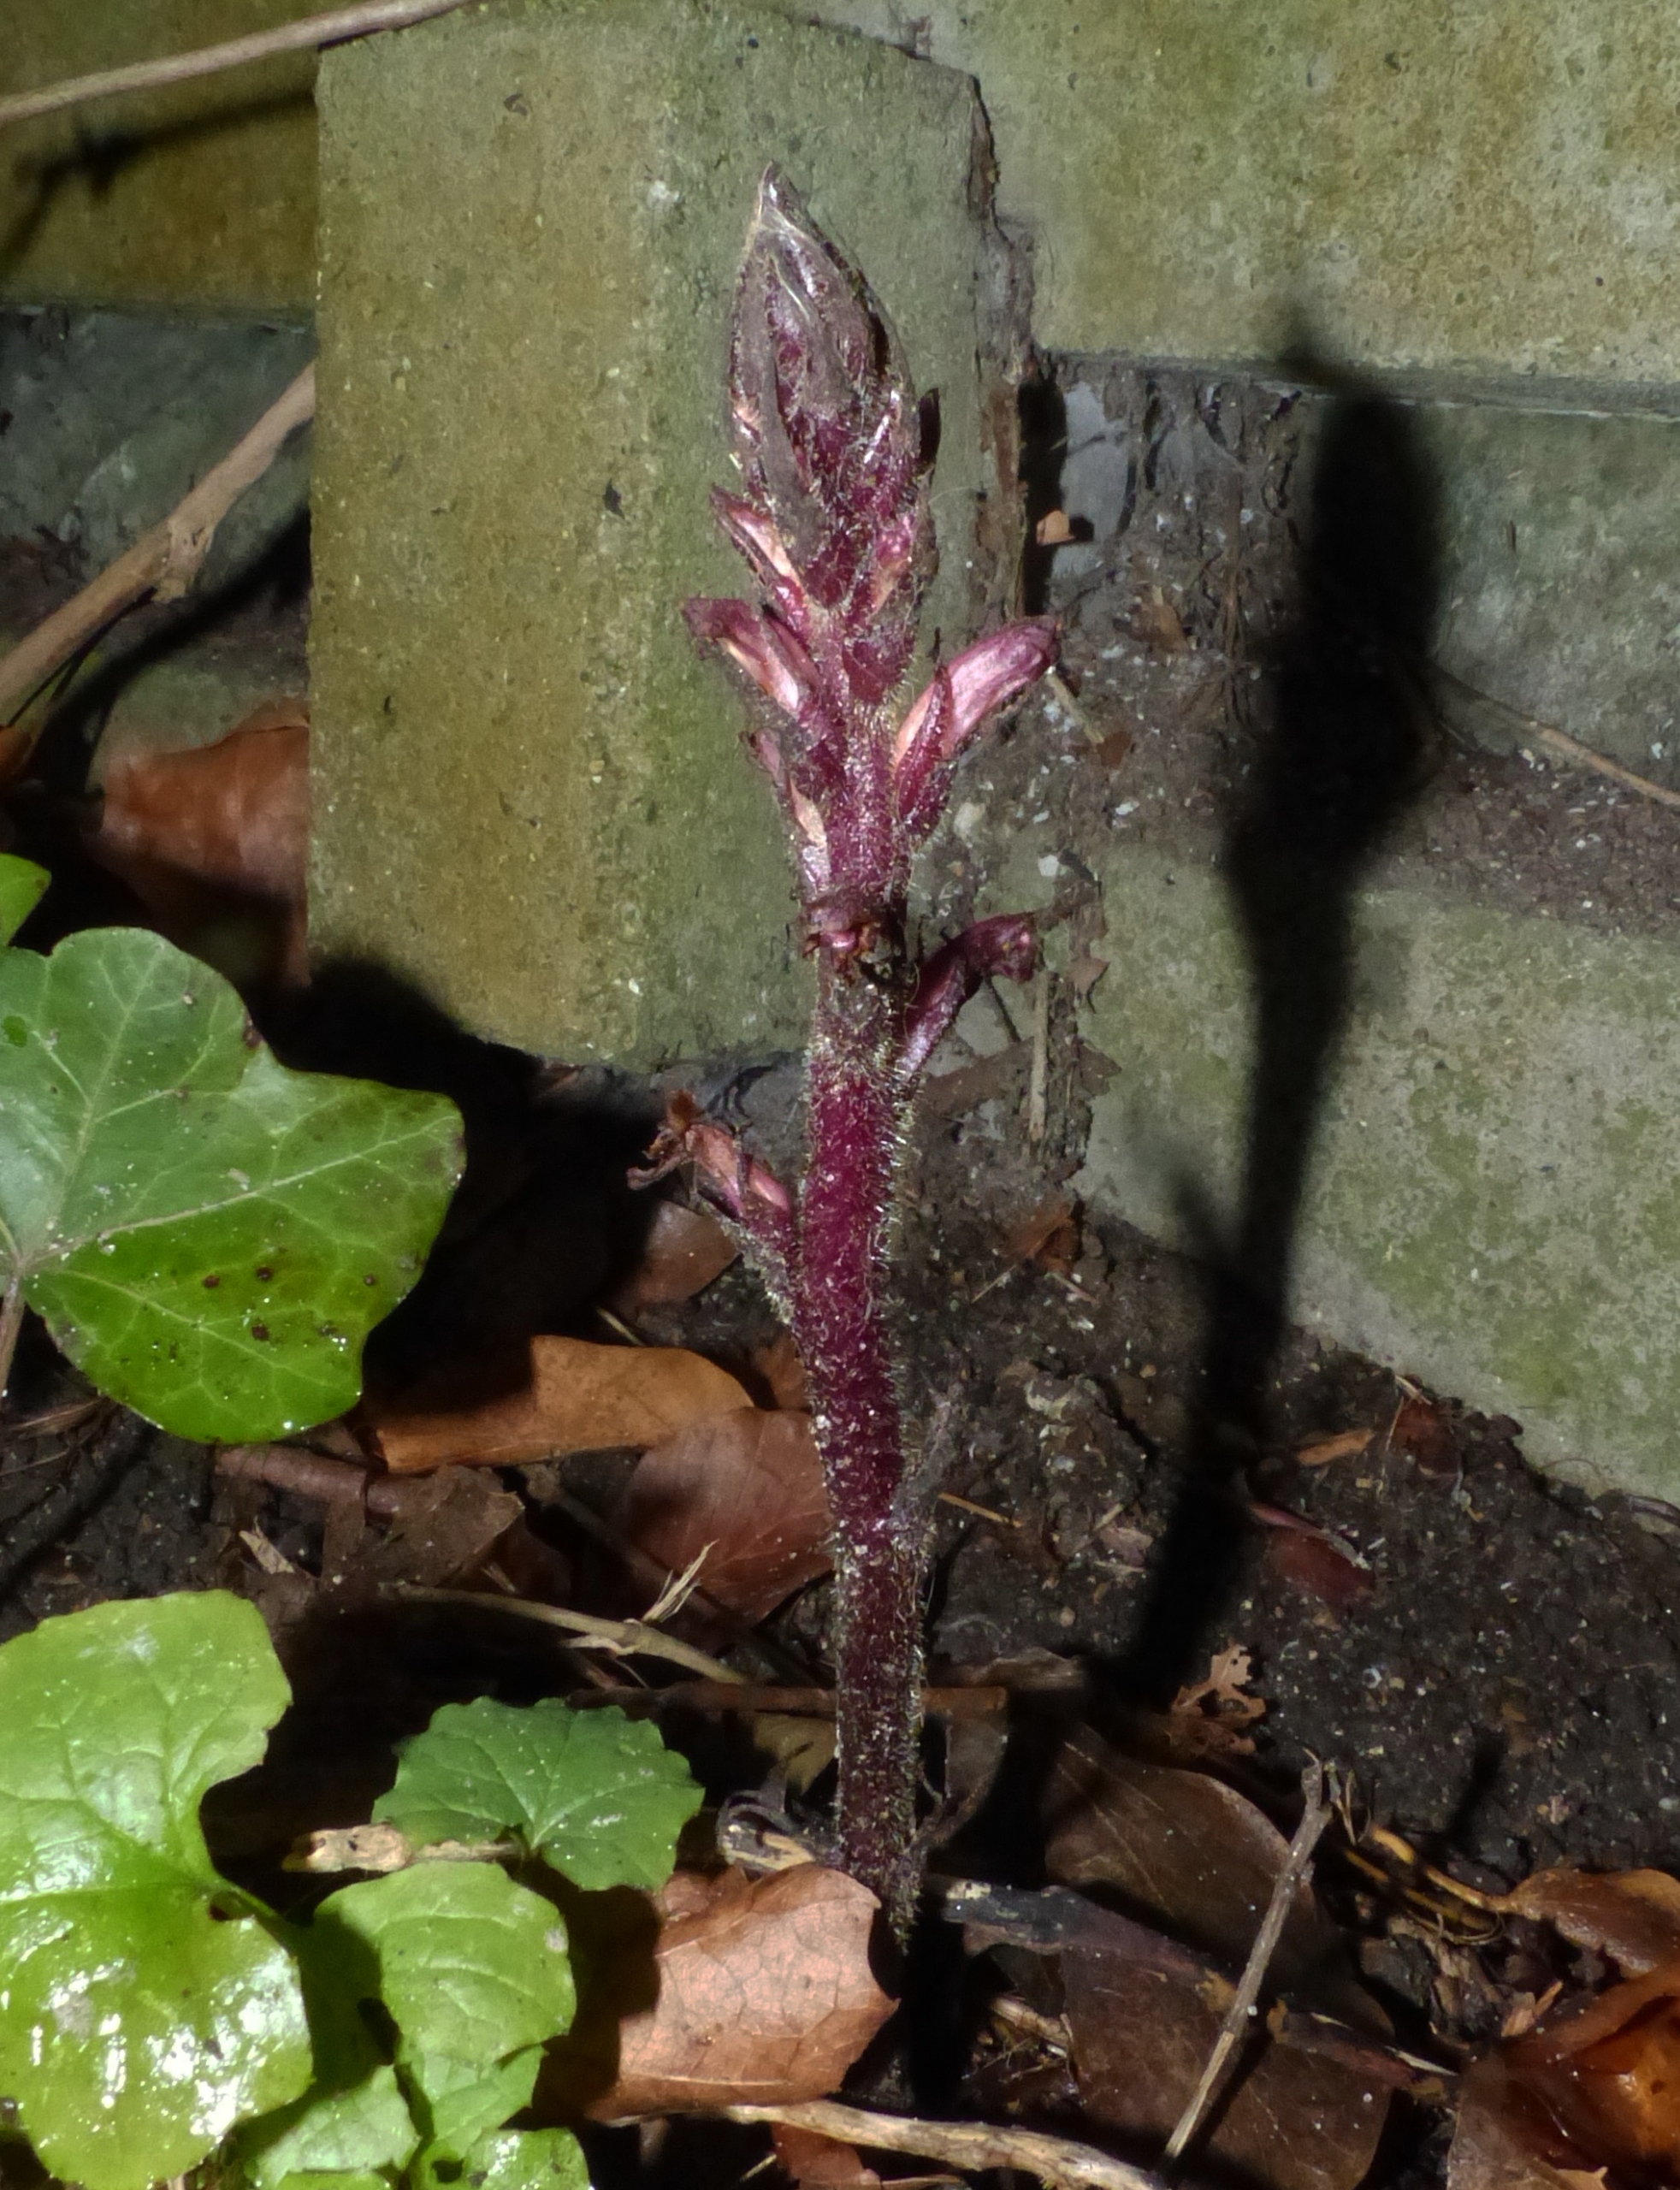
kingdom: Plantae
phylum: Tracheophyta
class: Magnoliopsida
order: Lamiales
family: Orobanchaceae
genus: Orobanche
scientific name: Orobanche hederae
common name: Vedbend-gyvelkvæler
